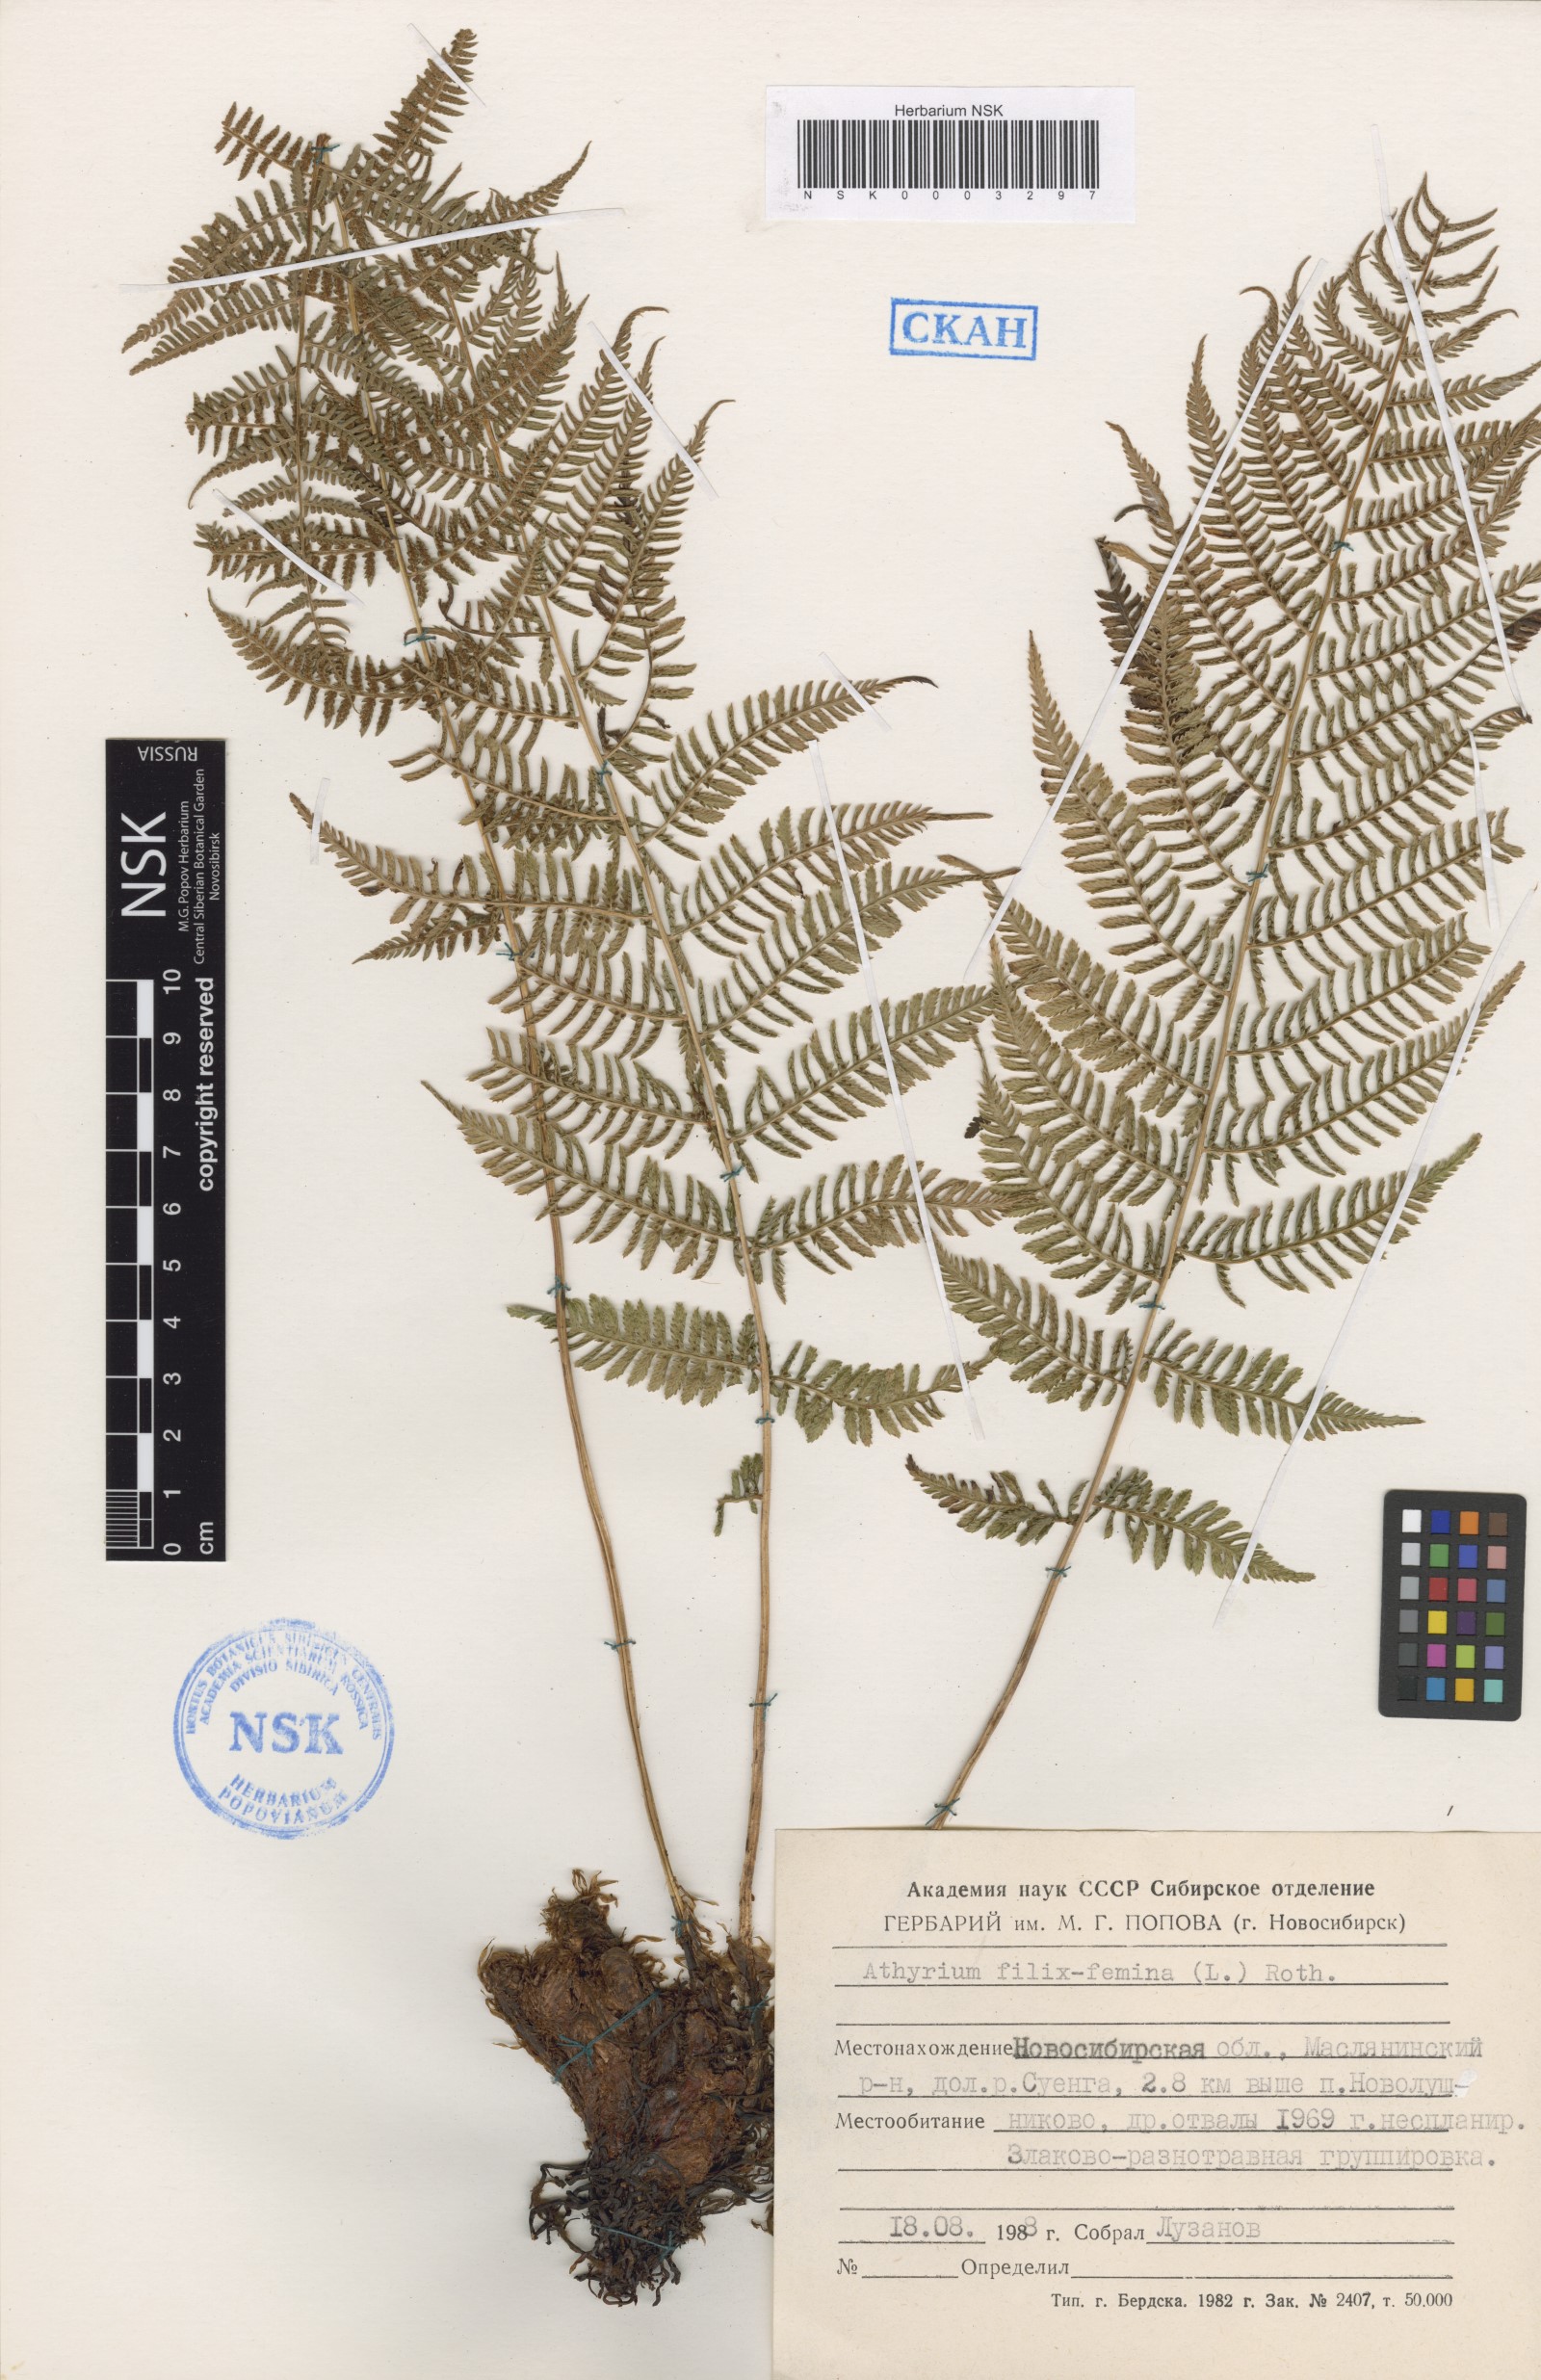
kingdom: Plantae
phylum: Tracheophyta
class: Polypodiopsida
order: Polypodiales
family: Athyriaceae
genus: Athyrium
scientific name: Athyrium filix-femina
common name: Lady fern
